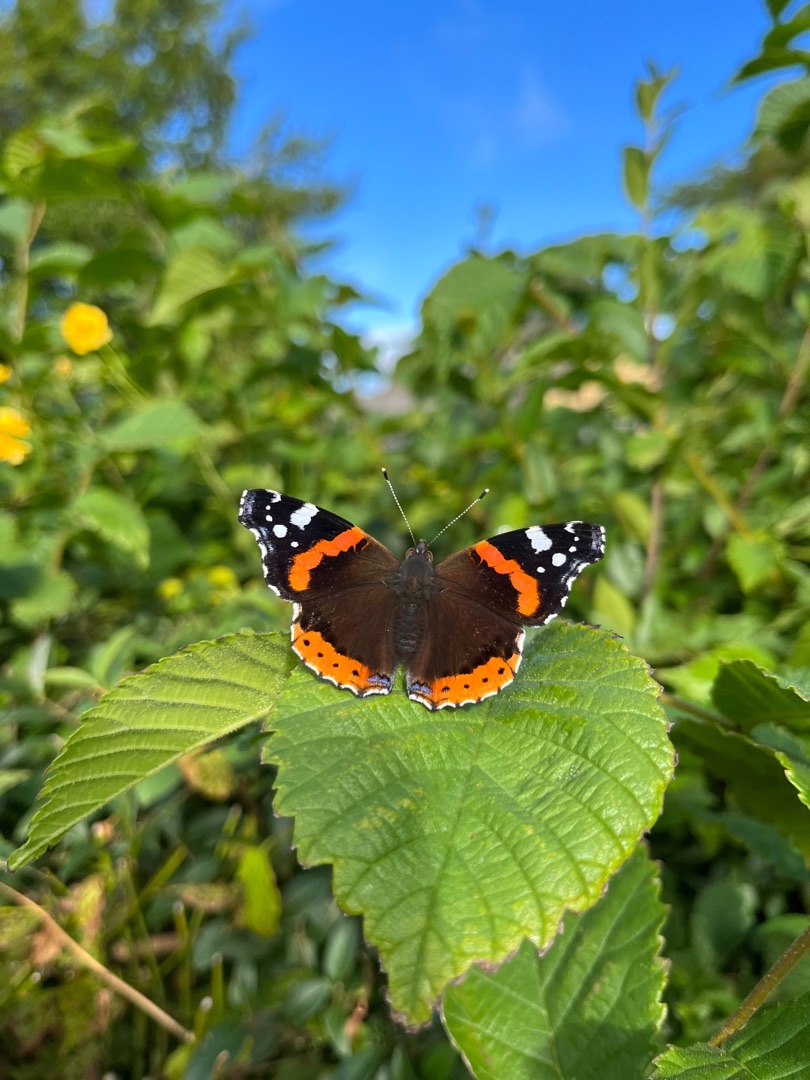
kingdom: Animalia
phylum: Arthropoda
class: Insecta
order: Lepidoptera
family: Nymphalidae
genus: Vanessa
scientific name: Vanessa atalanta
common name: Admiral
